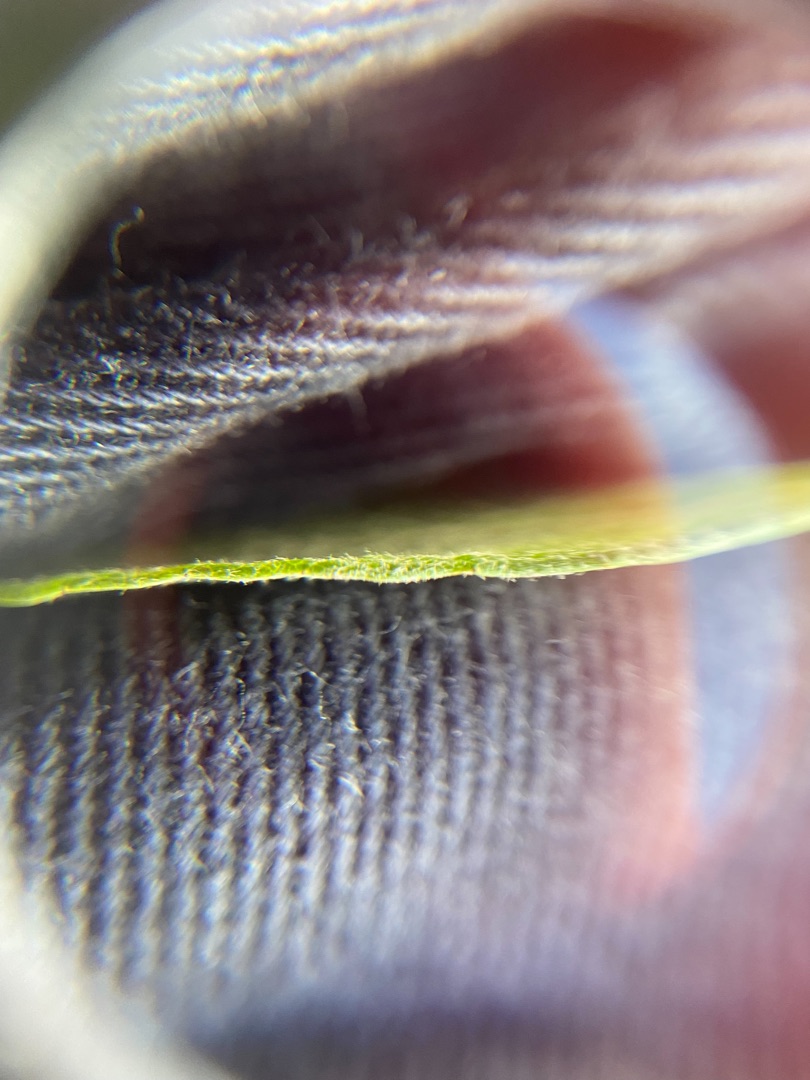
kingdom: Plantae
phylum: Tracheophyta
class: Magnoliopsida
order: Malpighiales
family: Salicaceae
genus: Salix
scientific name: Salix
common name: Pileslægten
